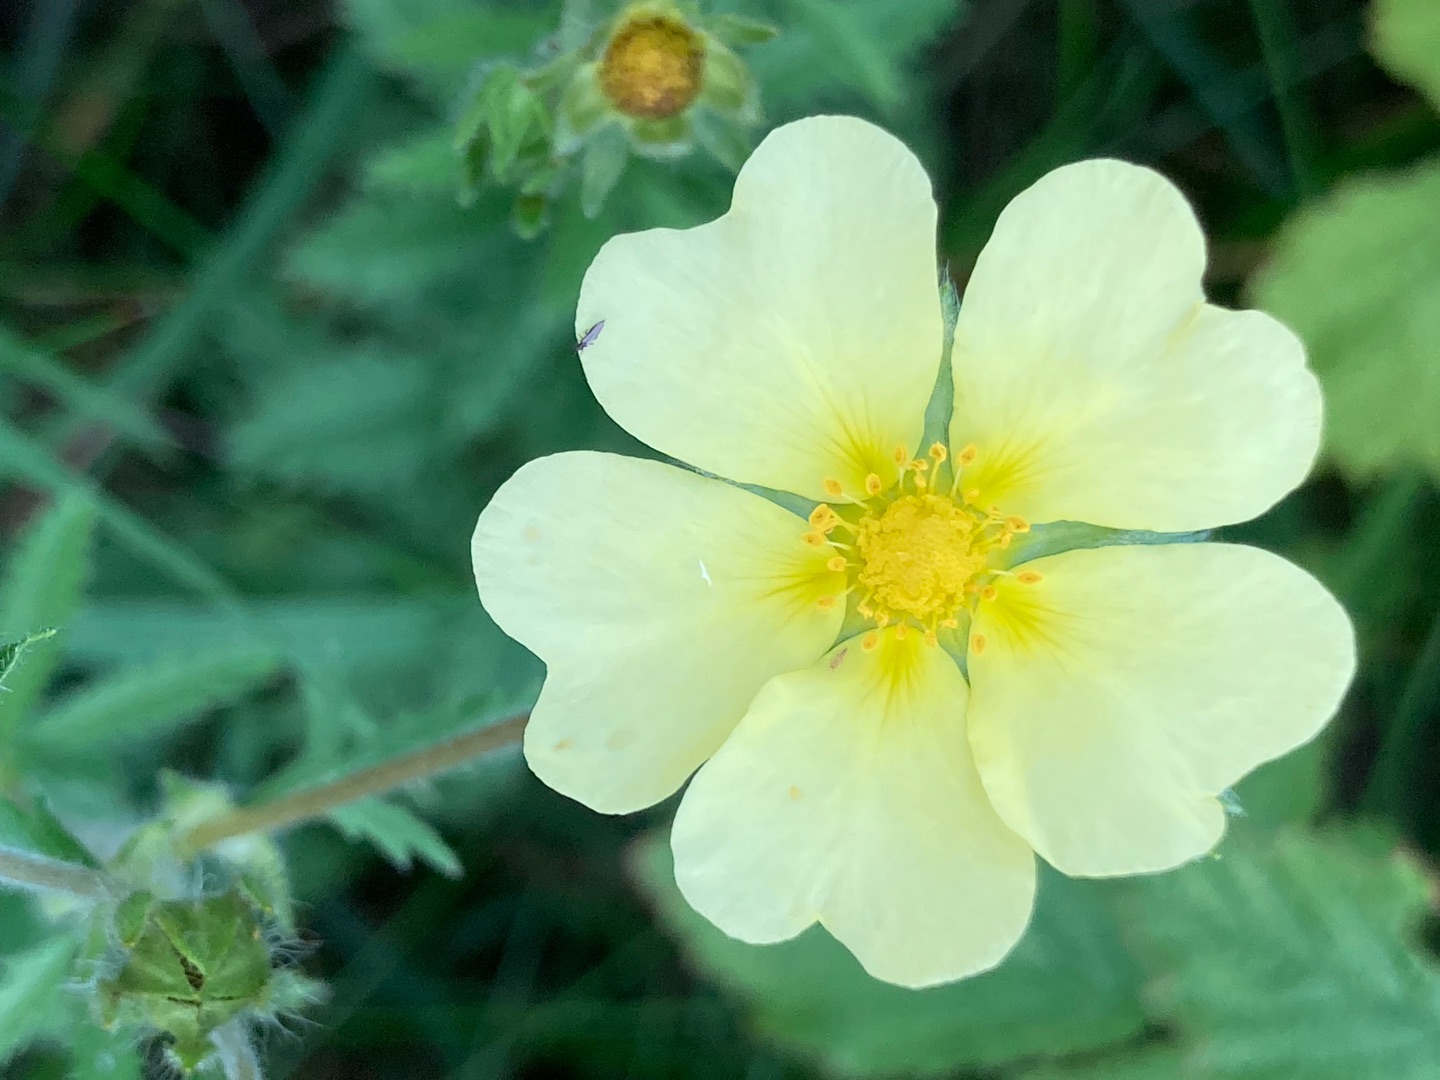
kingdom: Plantae
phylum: Tracheophyta
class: Magnoliopsida
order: Rosales
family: Rosaceae
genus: Potentilla
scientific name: Potentilla recta
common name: Rank potentil
